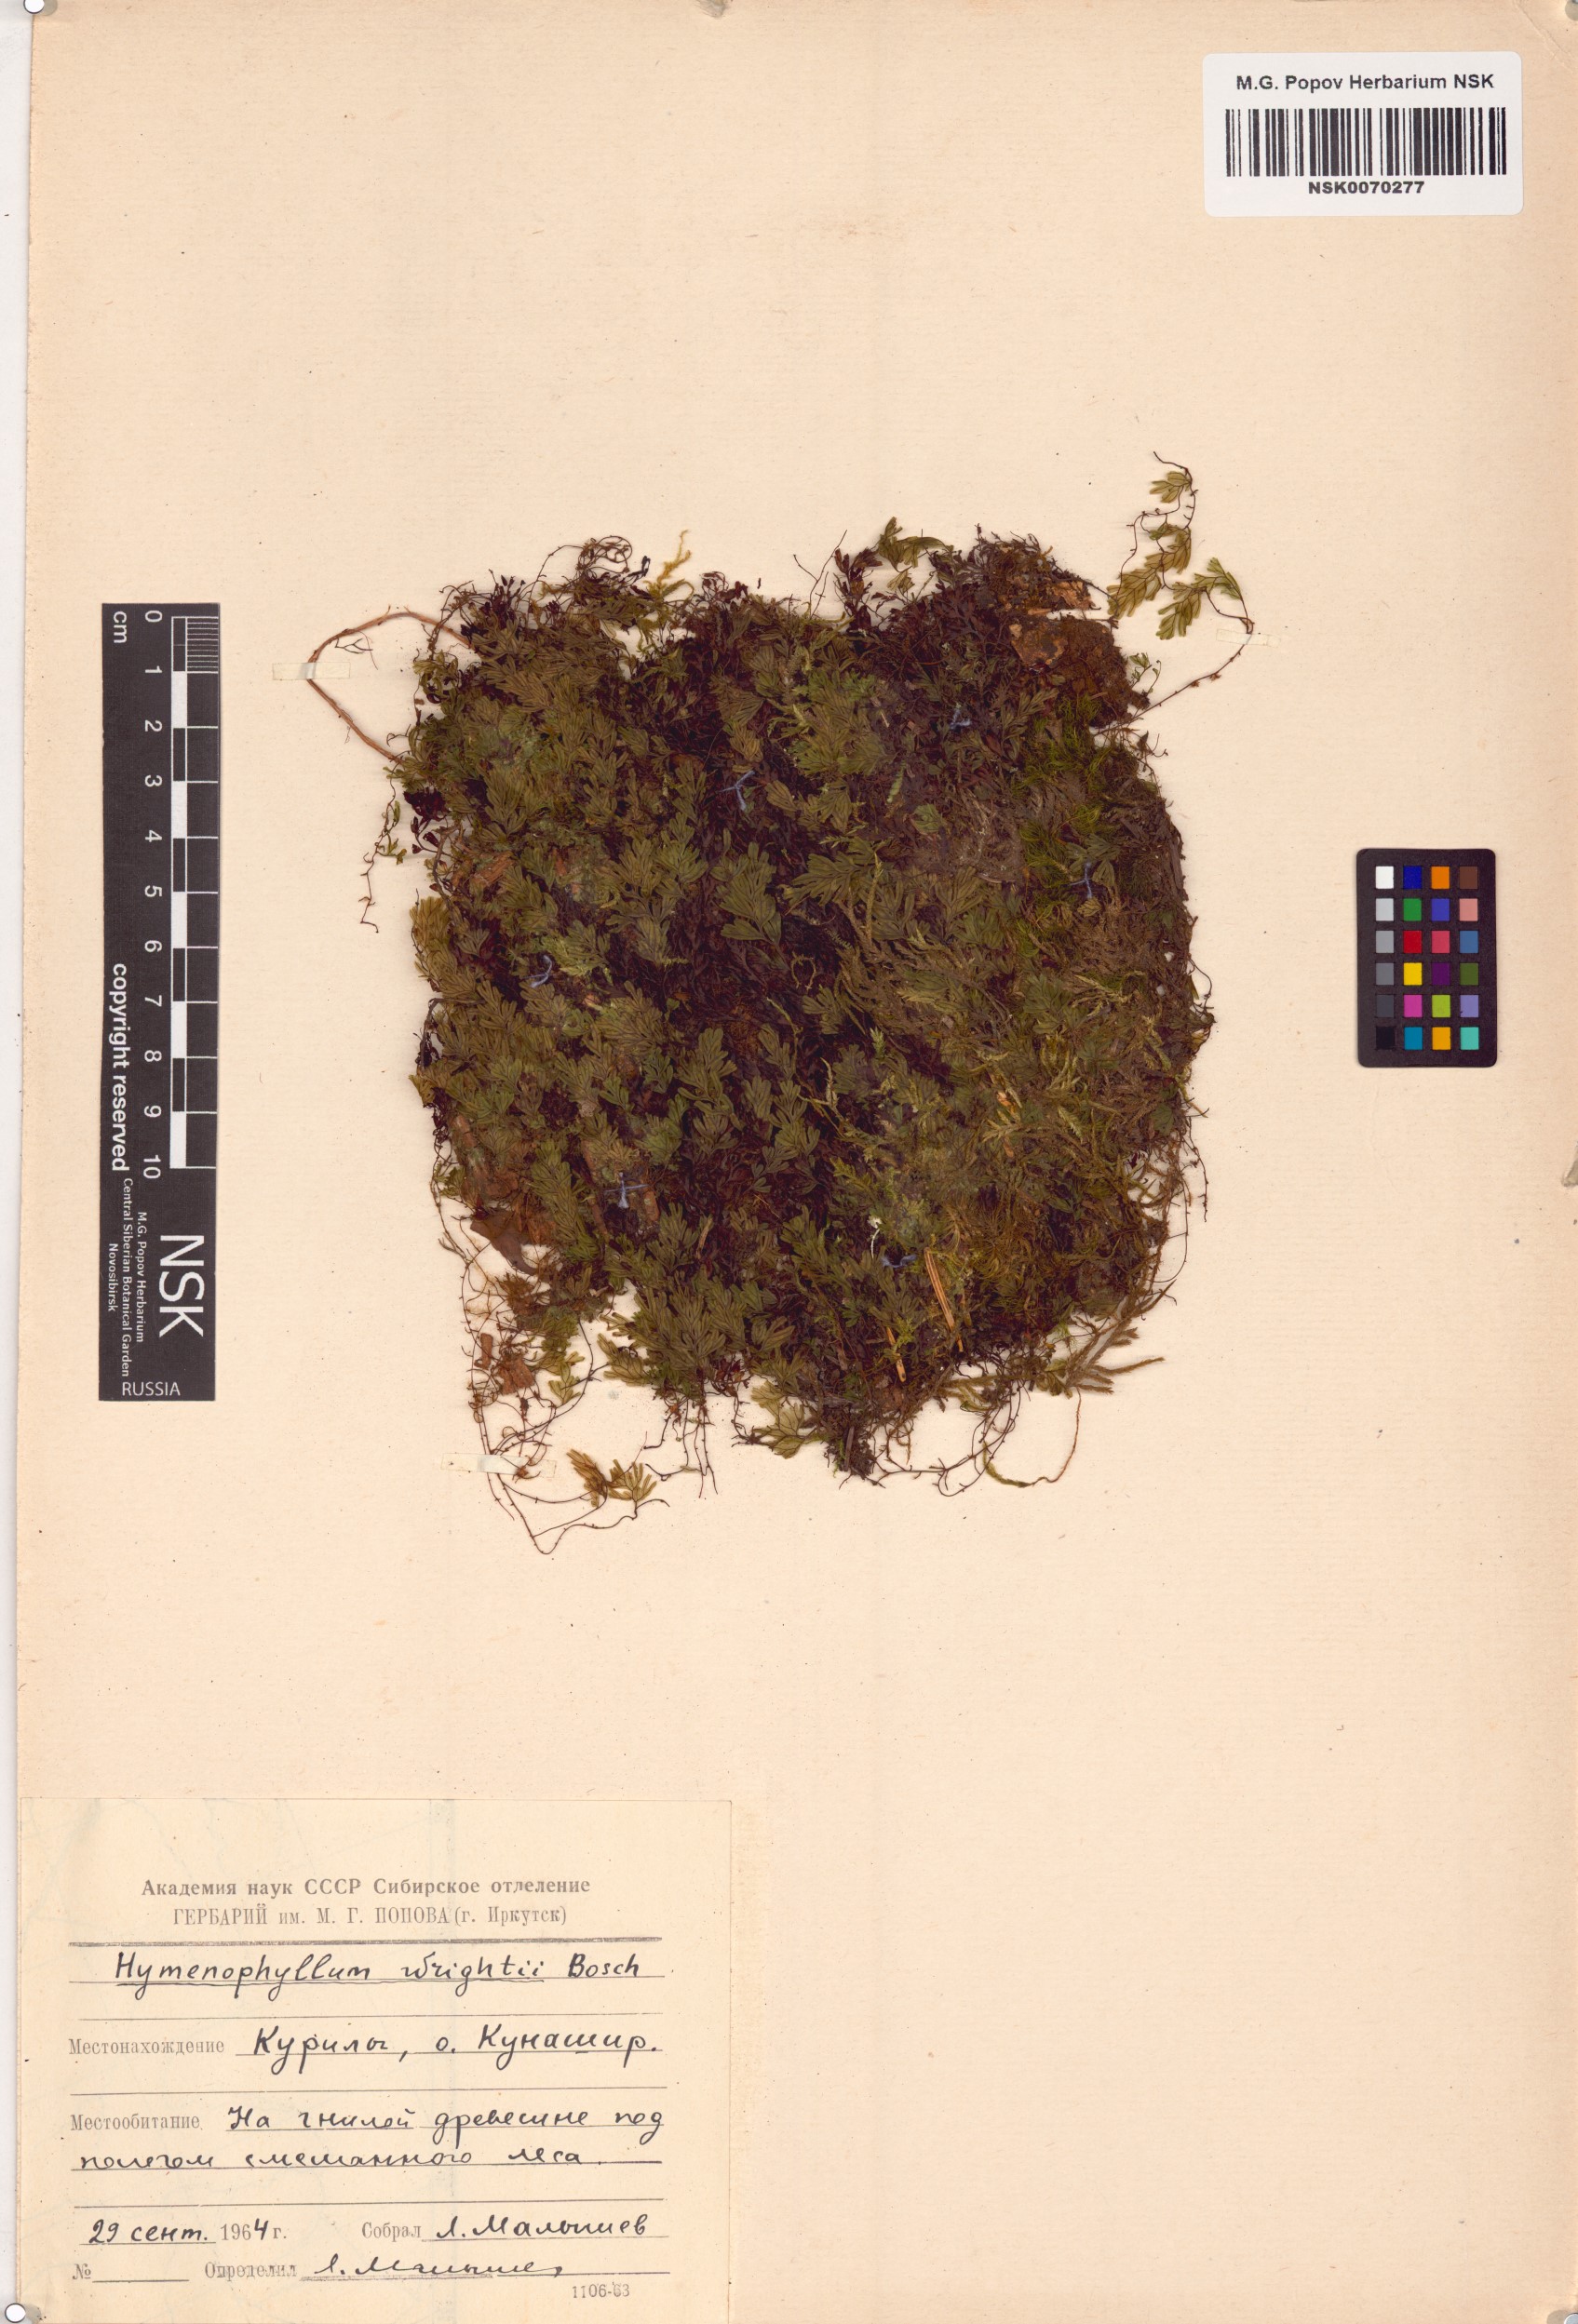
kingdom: Plantae
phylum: Tracheophyta
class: Polypodiopsida
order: Hymenophyllales
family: Hymenophyllaceae
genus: Hymenophyllum
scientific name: Hymenophyllum wrightii
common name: Wright's filmy fern
